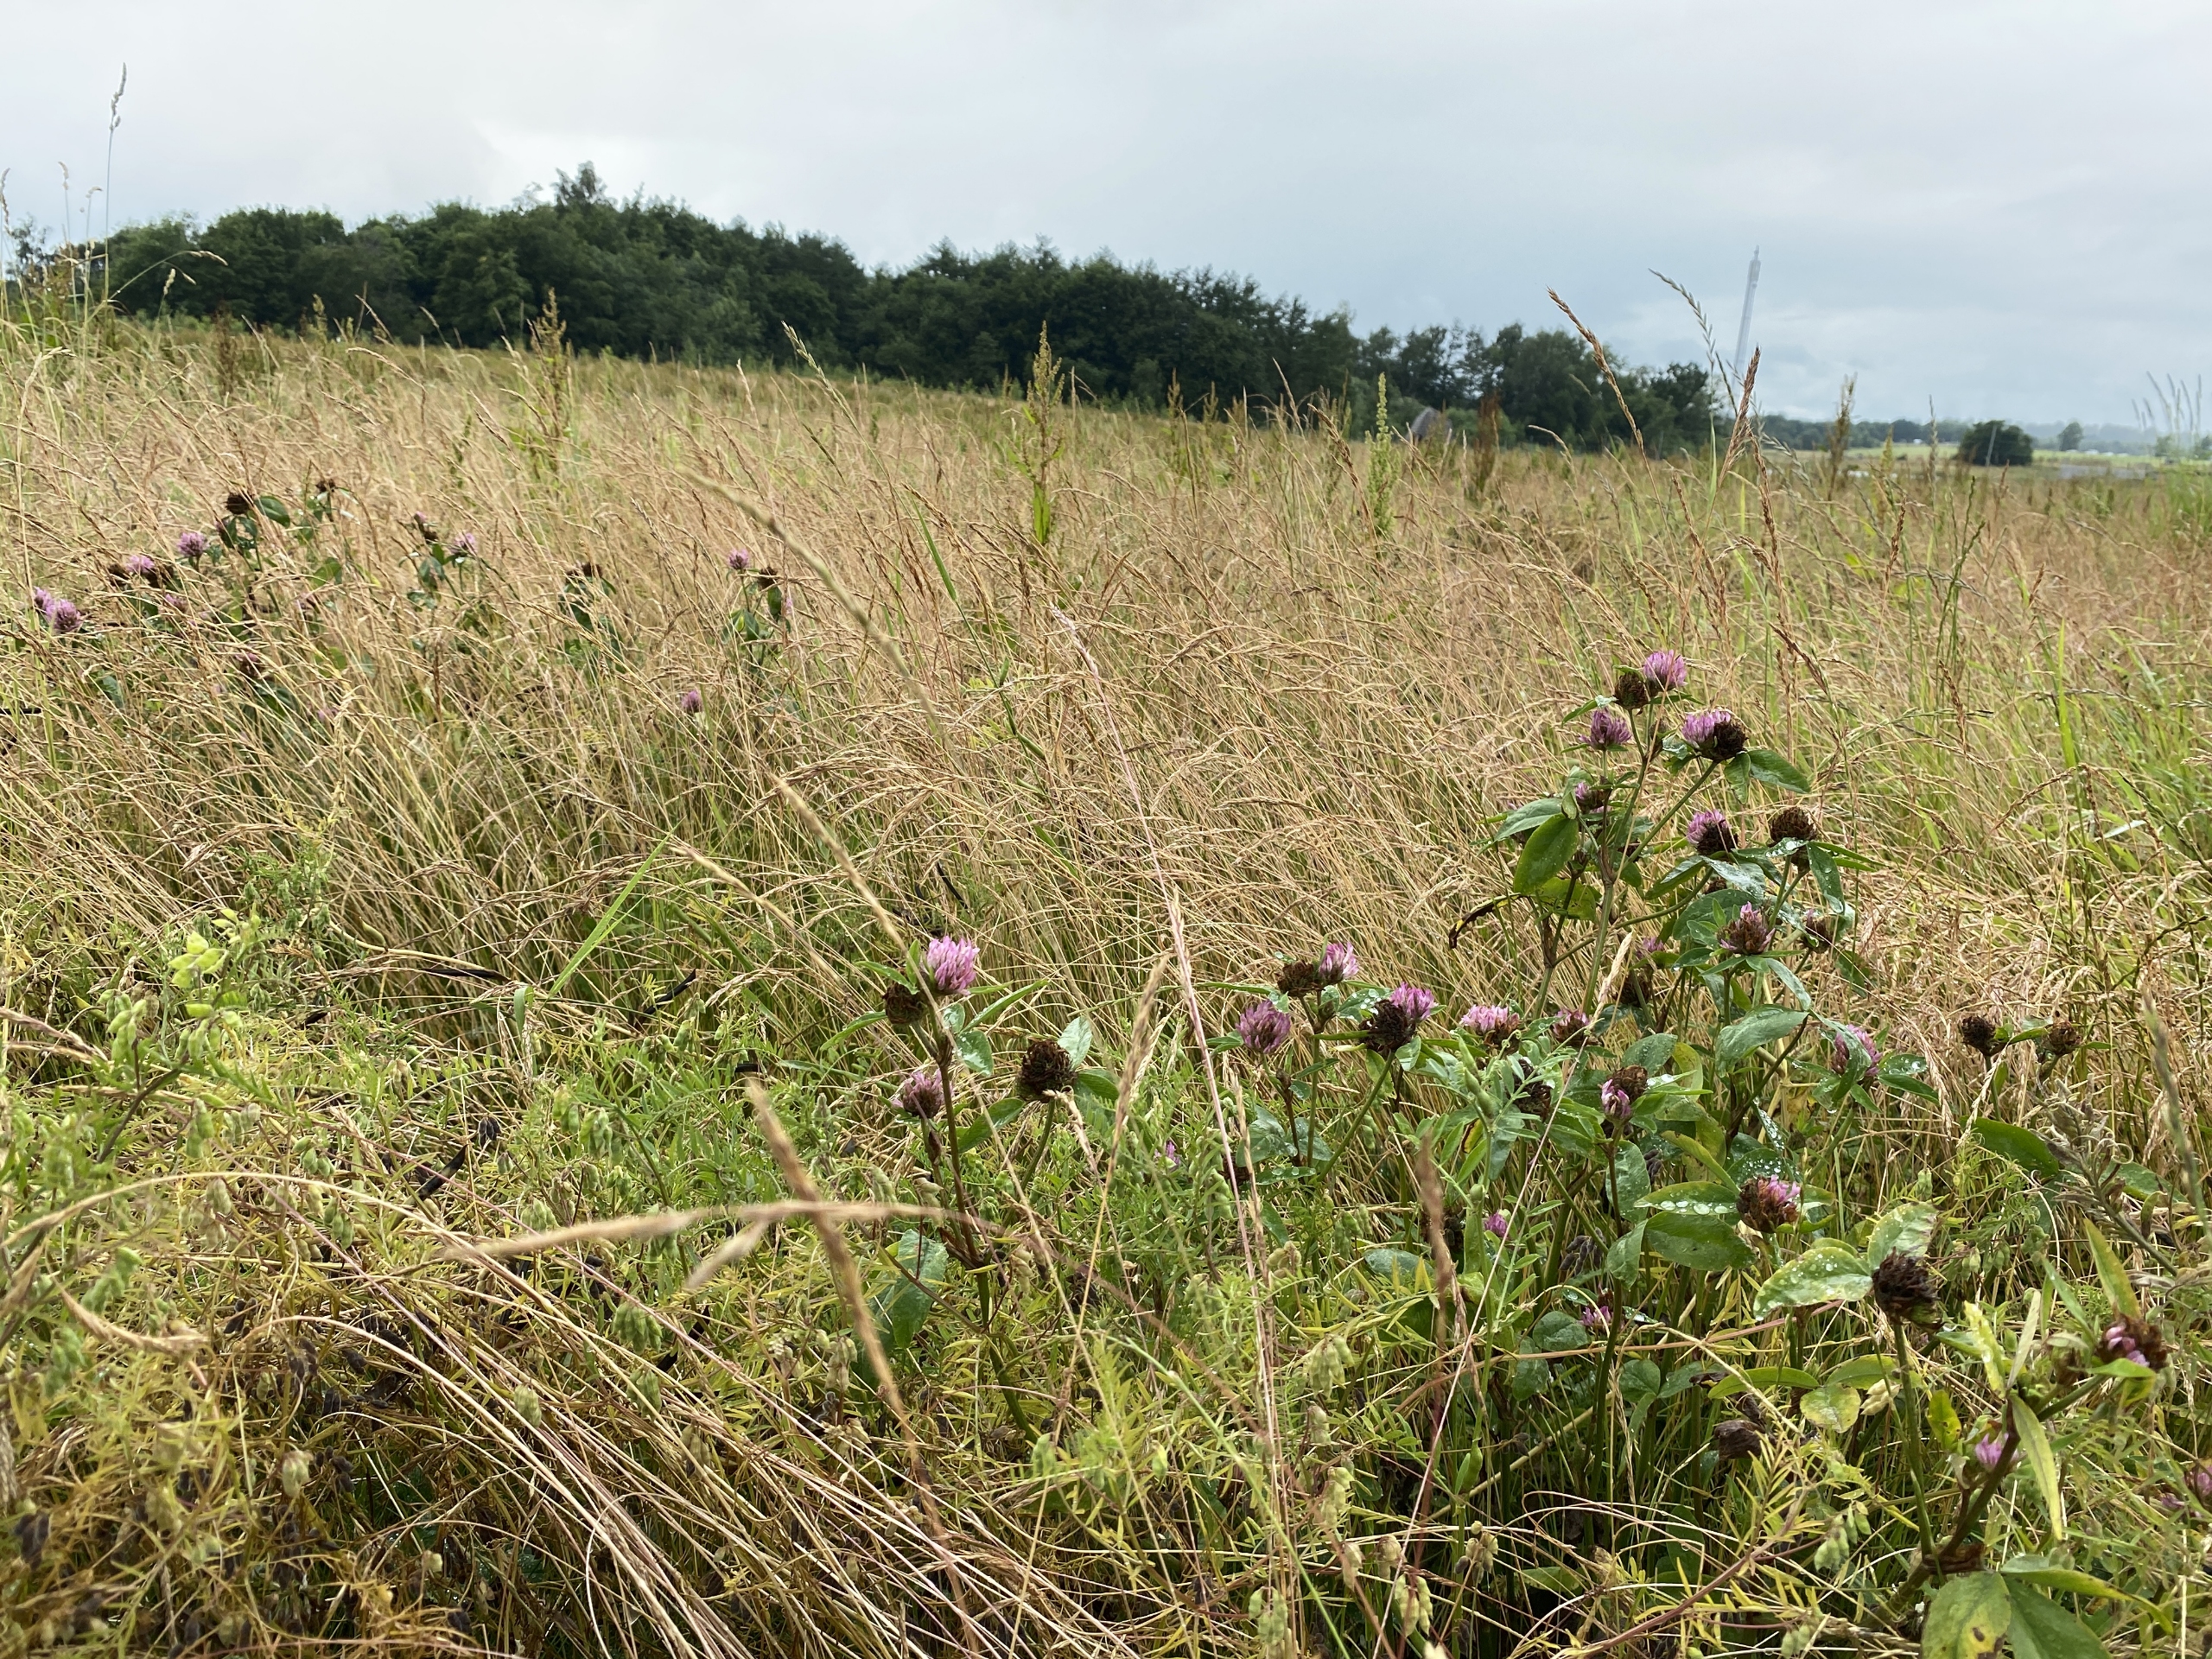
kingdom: Plantae
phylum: Tracheophyta
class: Magnoliopsida
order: Fabales
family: Fabaceae
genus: Trifolium
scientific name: Trifolium pratense
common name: Rød-kløver
